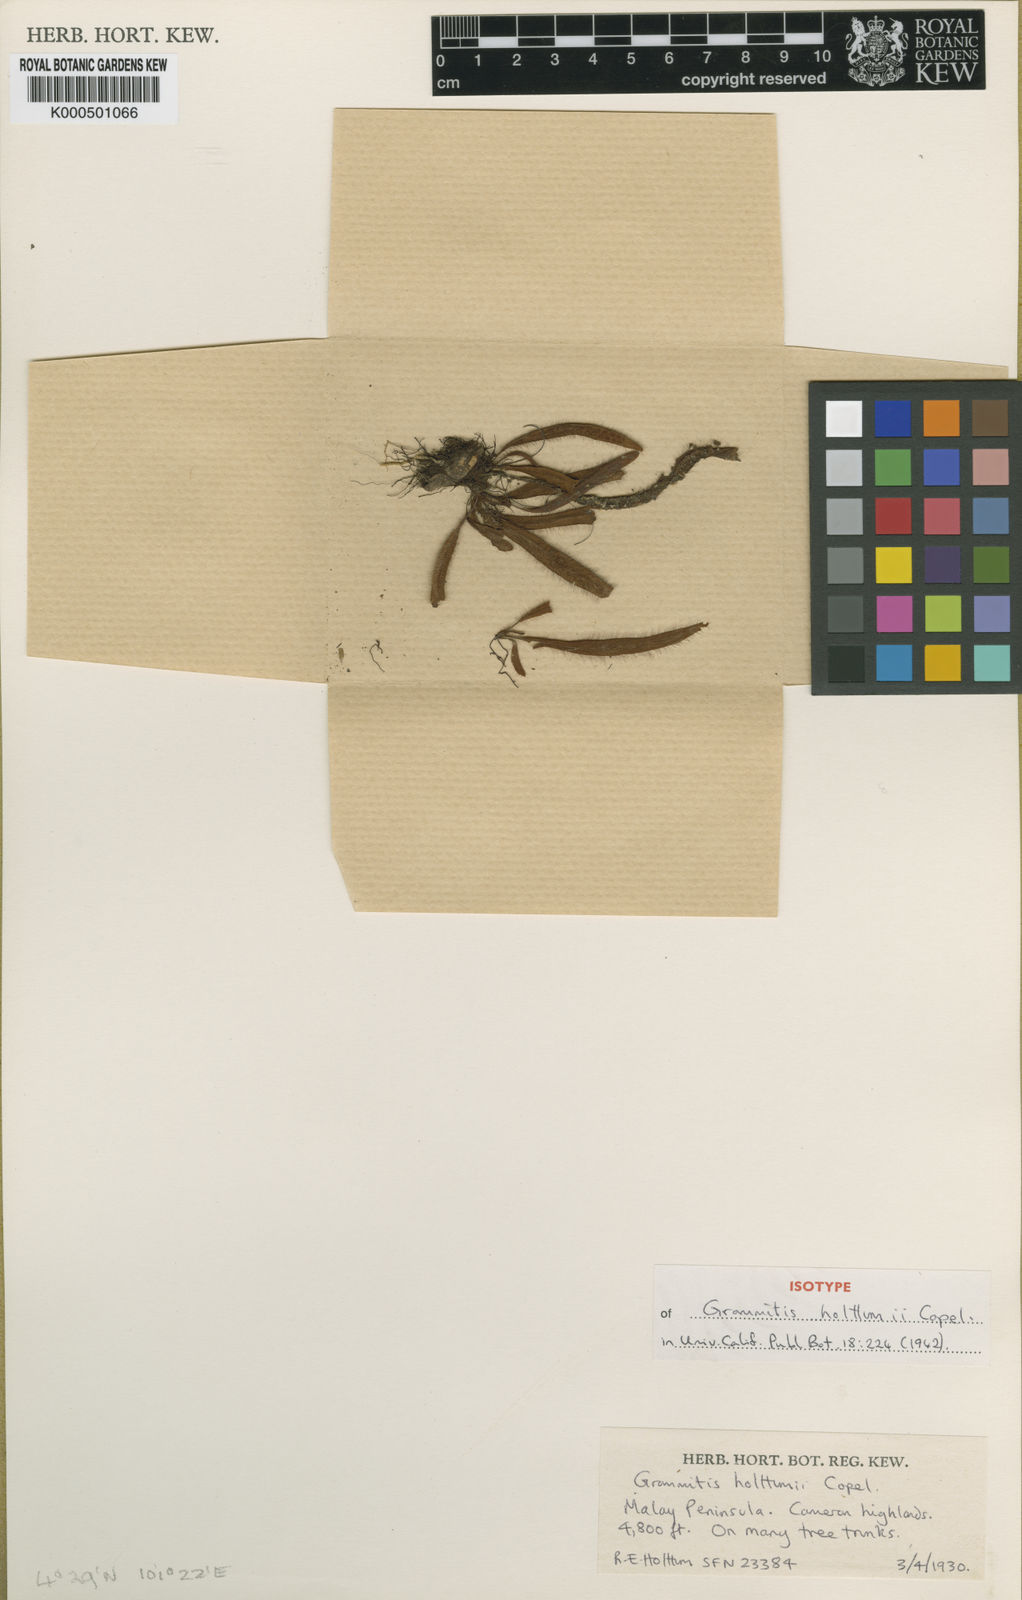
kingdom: Plantae
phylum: Tracheophyta
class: Polypodiopsida
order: Polypodiales
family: Polypodiaceae
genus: Oreogrammitis
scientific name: Oreogrammitis holttumii
